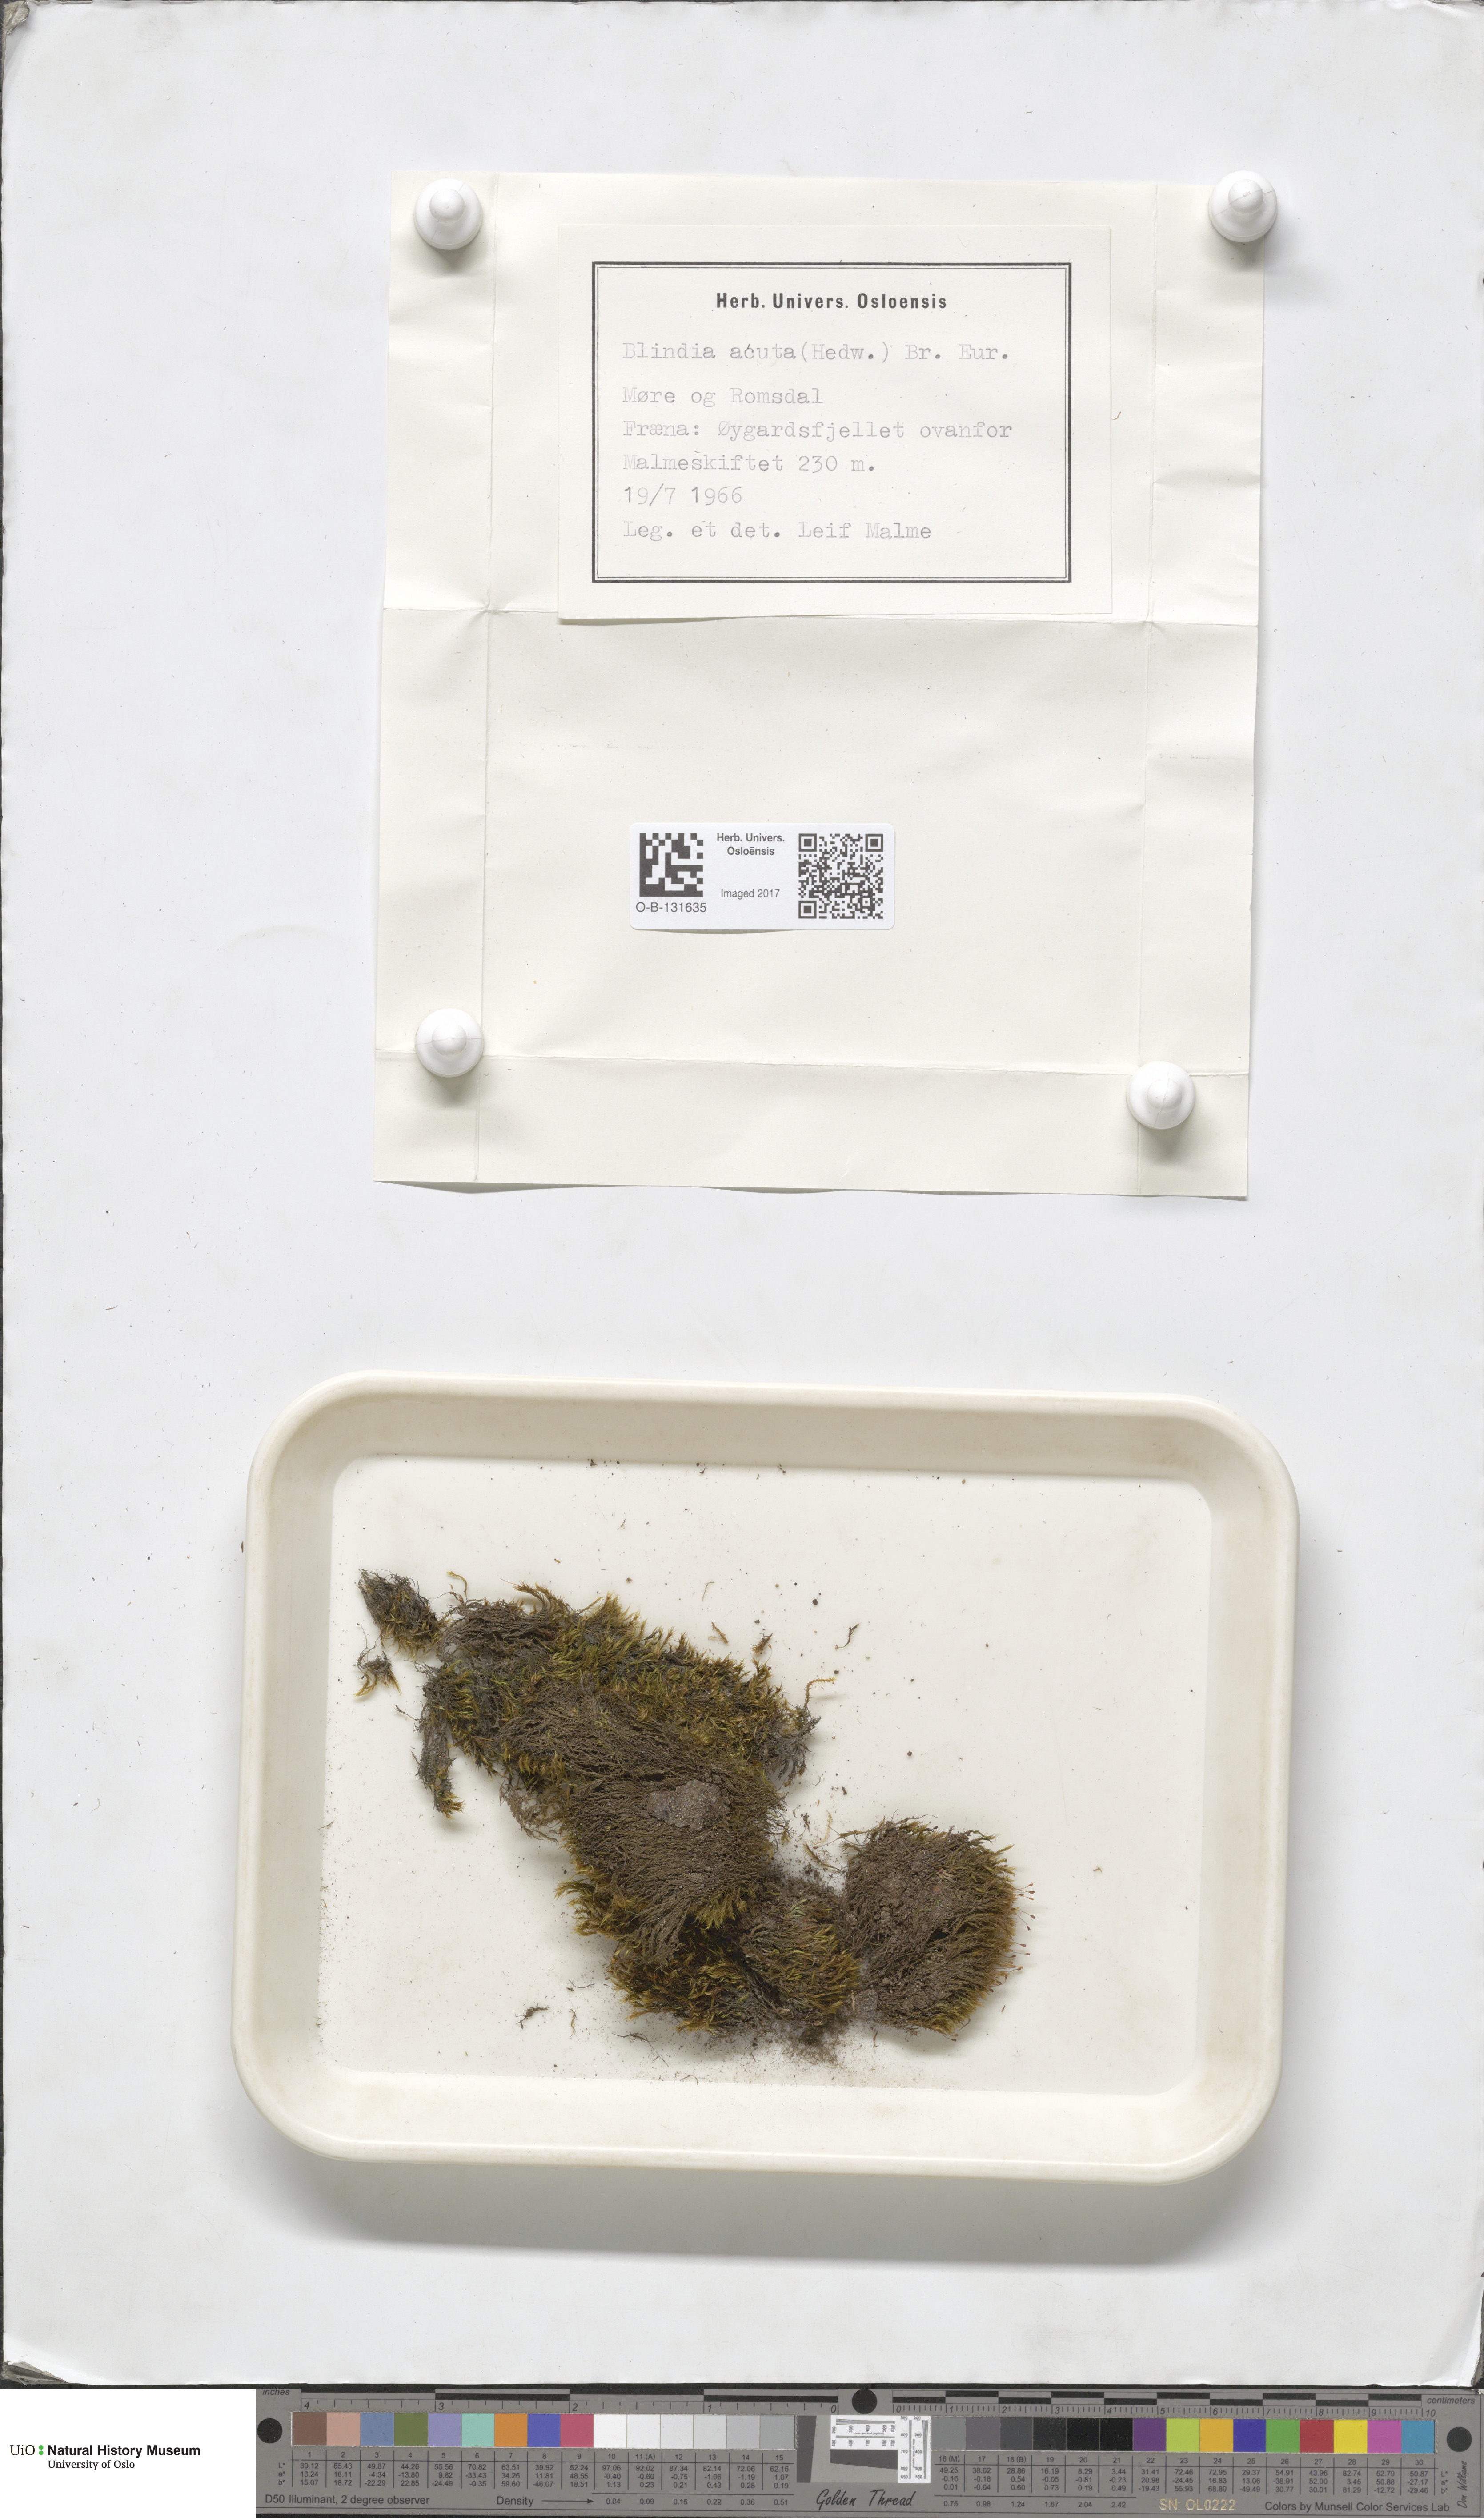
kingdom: Plantae
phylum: Bryophyta
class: Bryopsida
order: Grimmiales
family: Seligeriaceae
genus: Blindia
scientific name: Blindia acuta
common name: Sharp-leaved blind's moss
